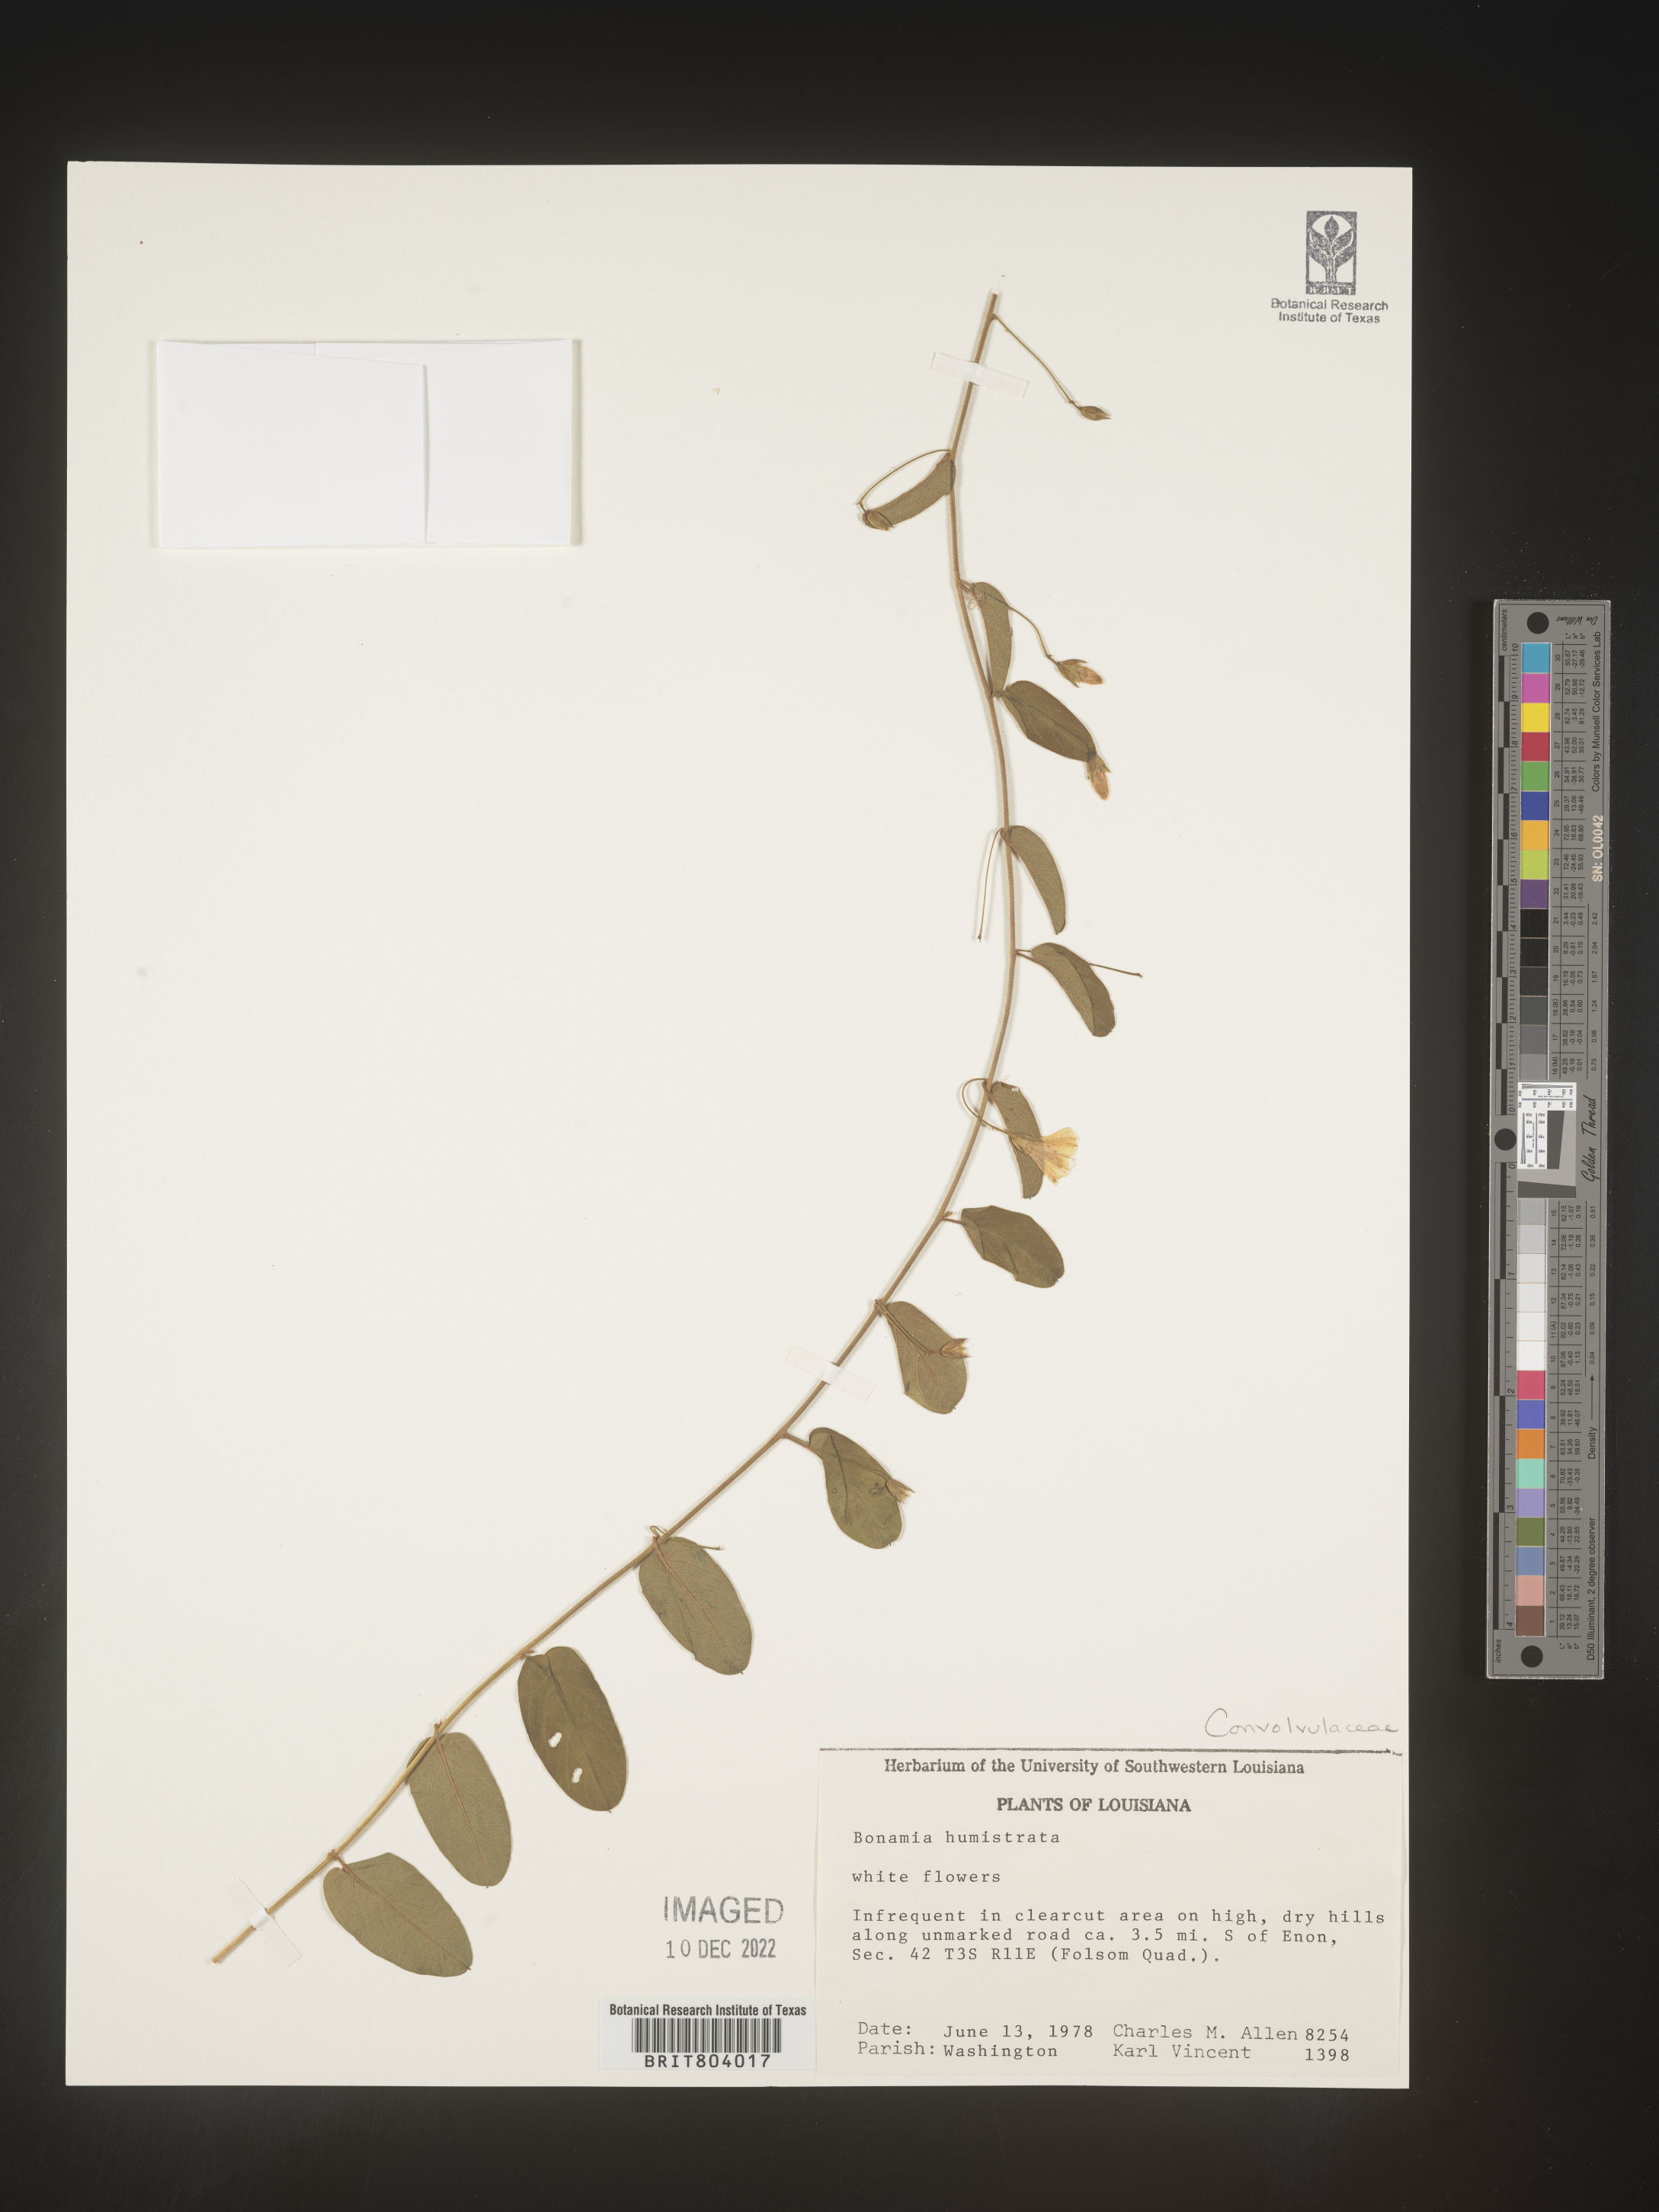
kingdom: Plantae
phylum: Tracheophyta
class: Magnoliopsida
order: Solanales
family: Convolvulaceae
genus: Bonamia
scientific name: Bonamia
